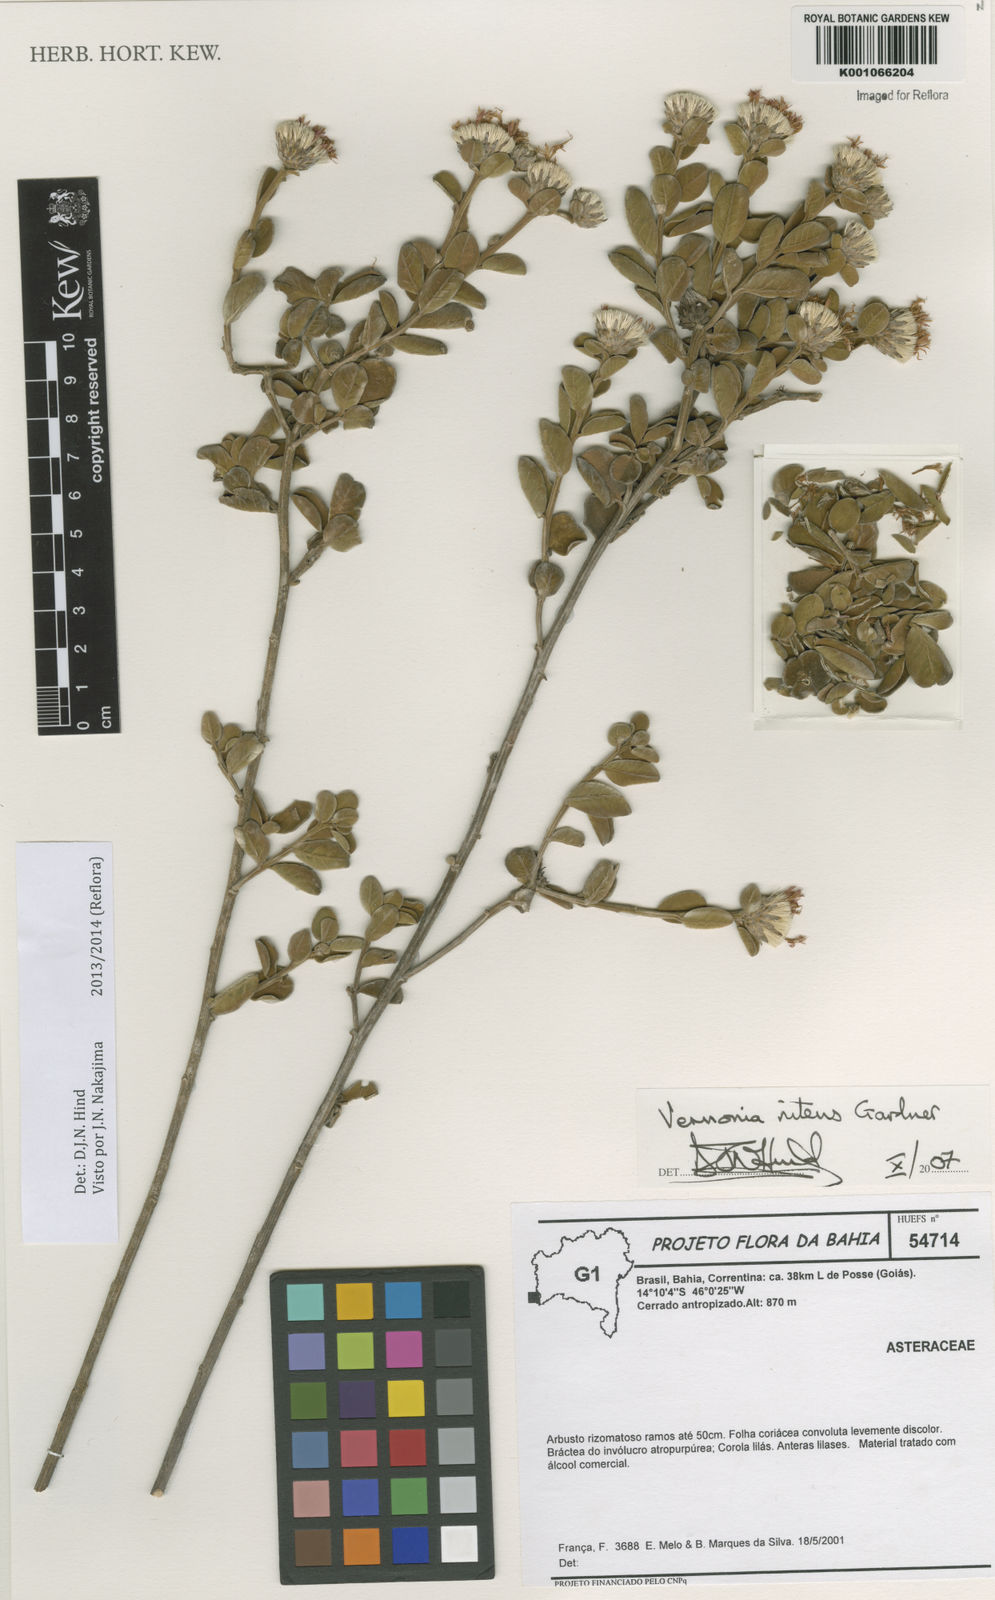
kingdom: Plantae
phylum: Tracheophyta
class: Magnoliopsida
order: Asterales
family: Asteraceae
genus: Lepidaploa
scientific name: Lepidaploa nitens
